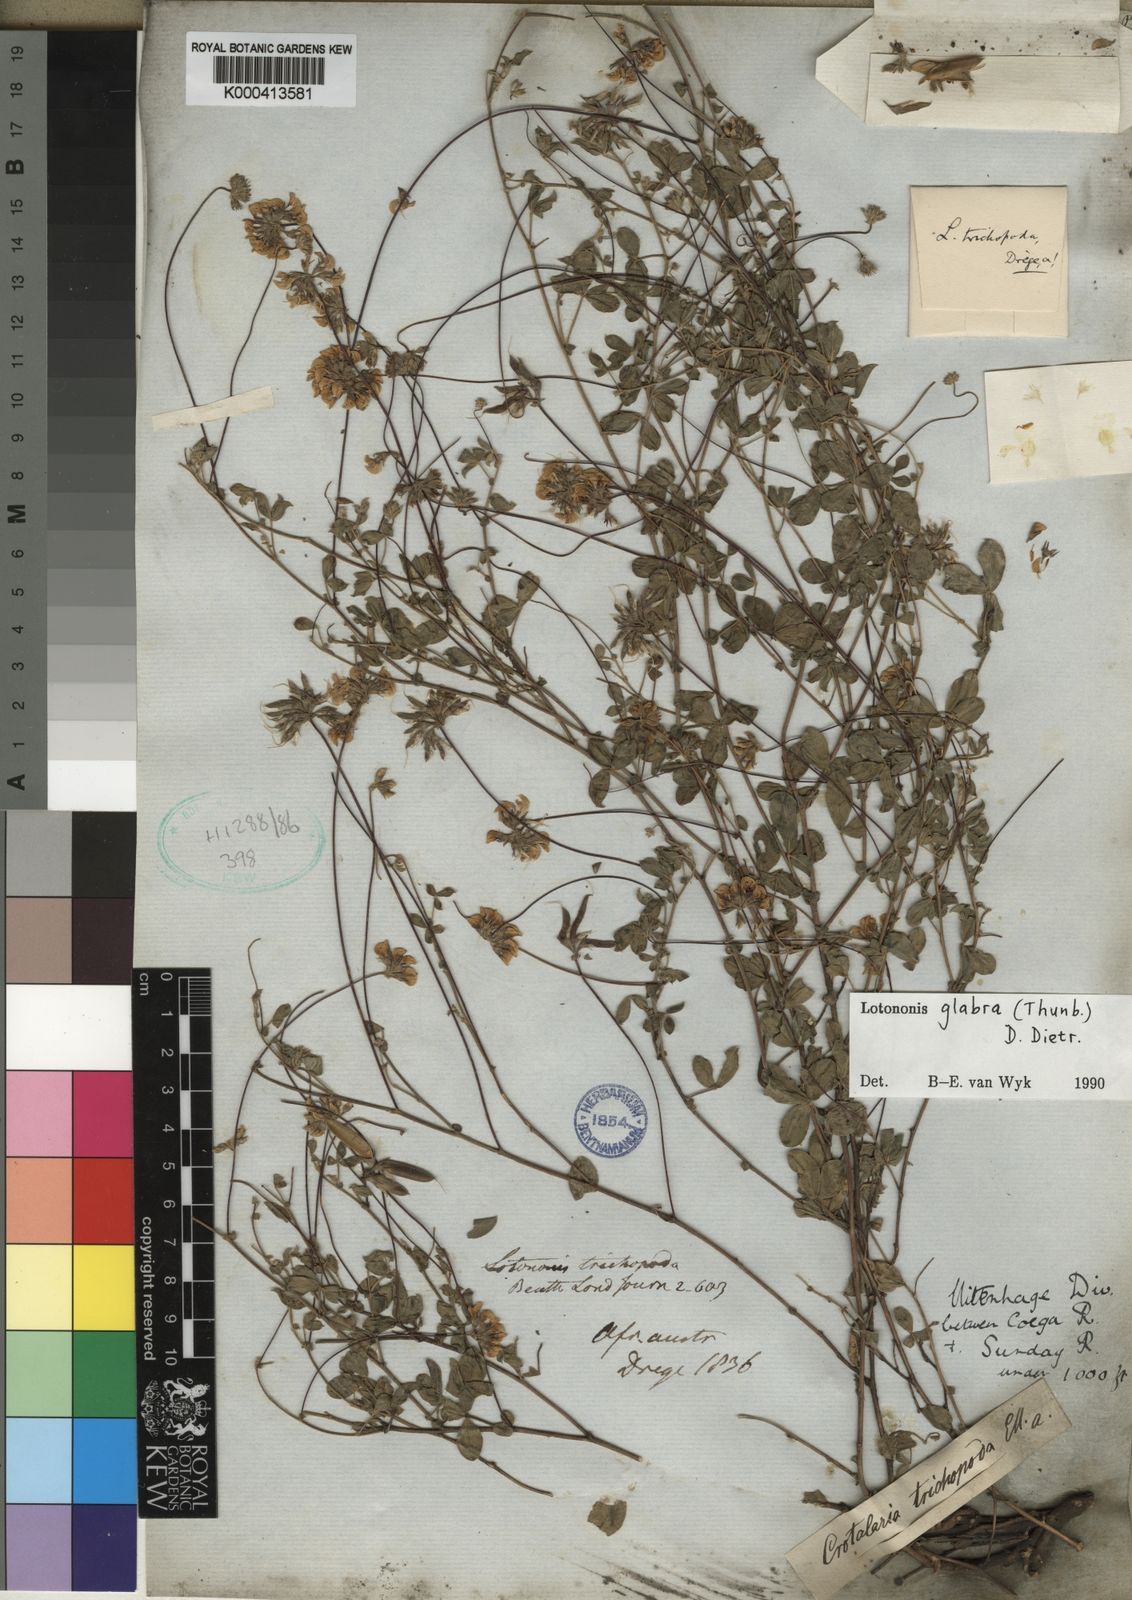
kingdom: Plantae
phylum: Tracheophyta
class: Magnoliopsida
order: Fabales
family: Fabaceae
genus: Lotononis
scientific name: Lotononis glabra
